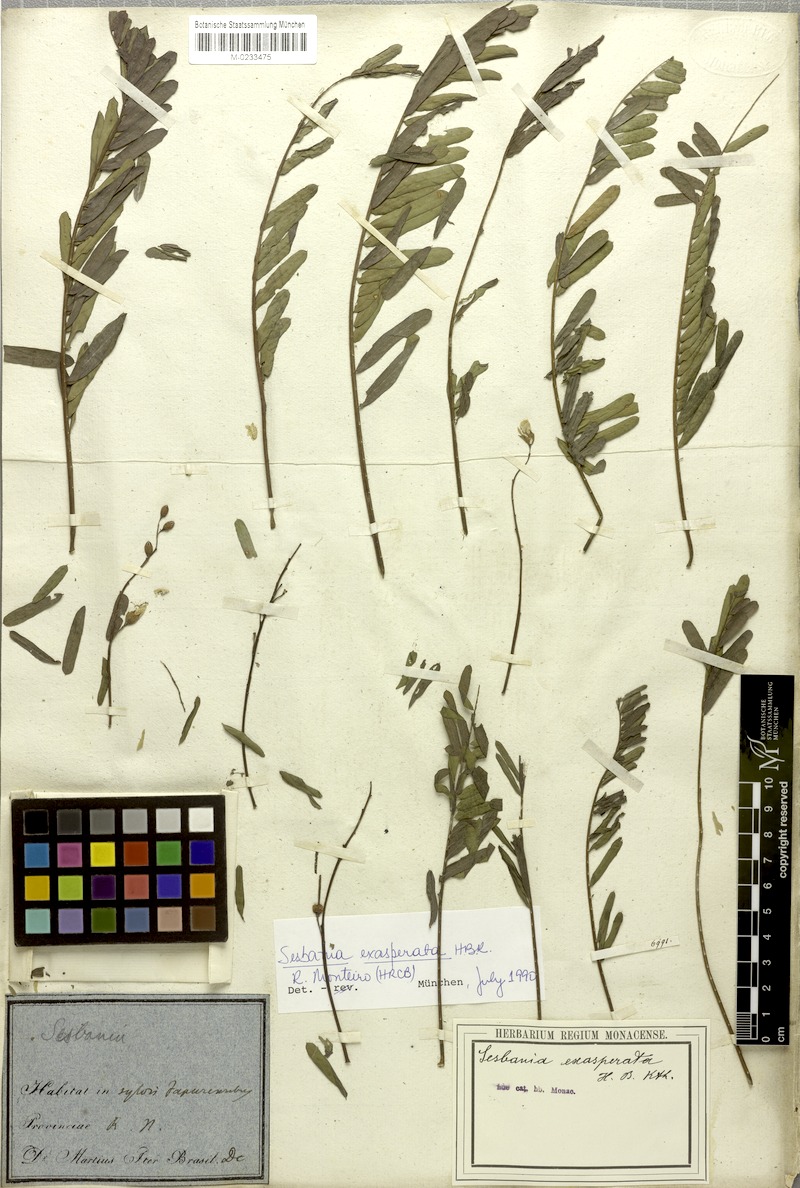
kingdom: Plantae
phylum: Tracheophyta
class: Magnoliopsida
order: Fabales
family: Fabaceae
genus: Sesbania
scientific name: Sesbania exasperata
